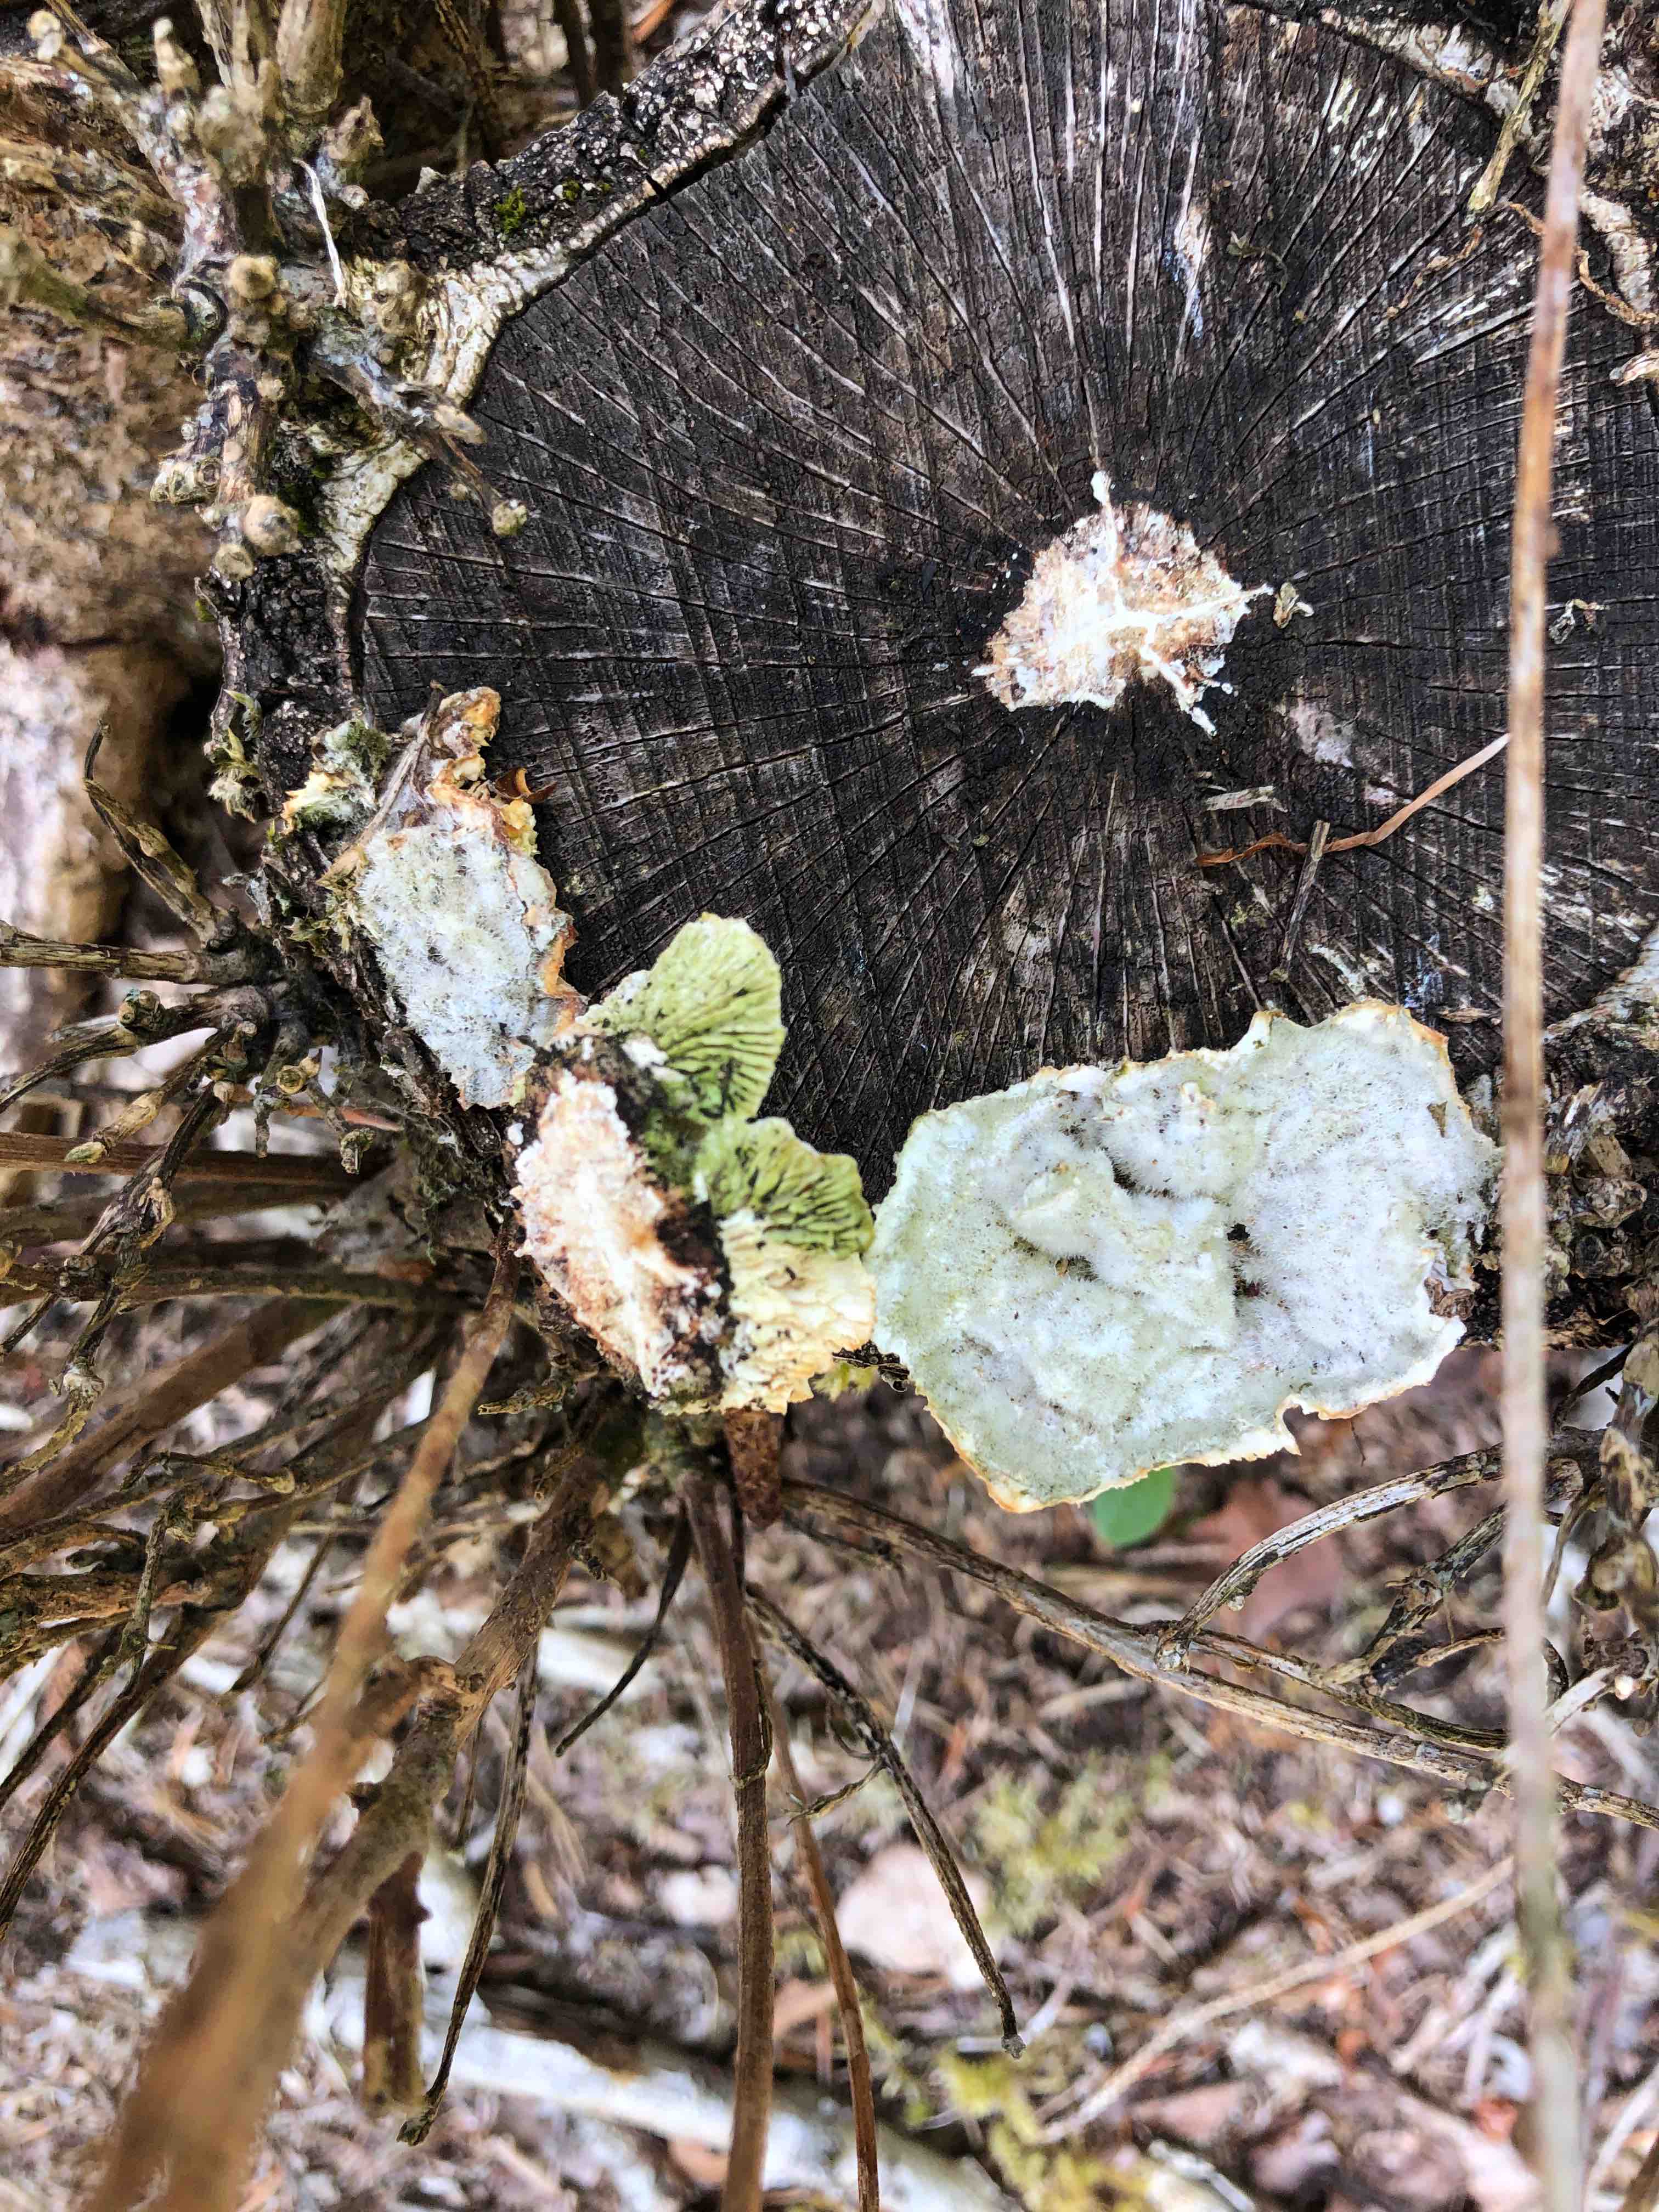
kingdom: Fungi
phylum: Basidiomycota
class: Agaricomycetes
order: Polyporales
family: Polyporaceae
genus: Lenzites
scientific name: Lenzites betulinus
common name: birke-læderporesvamp
